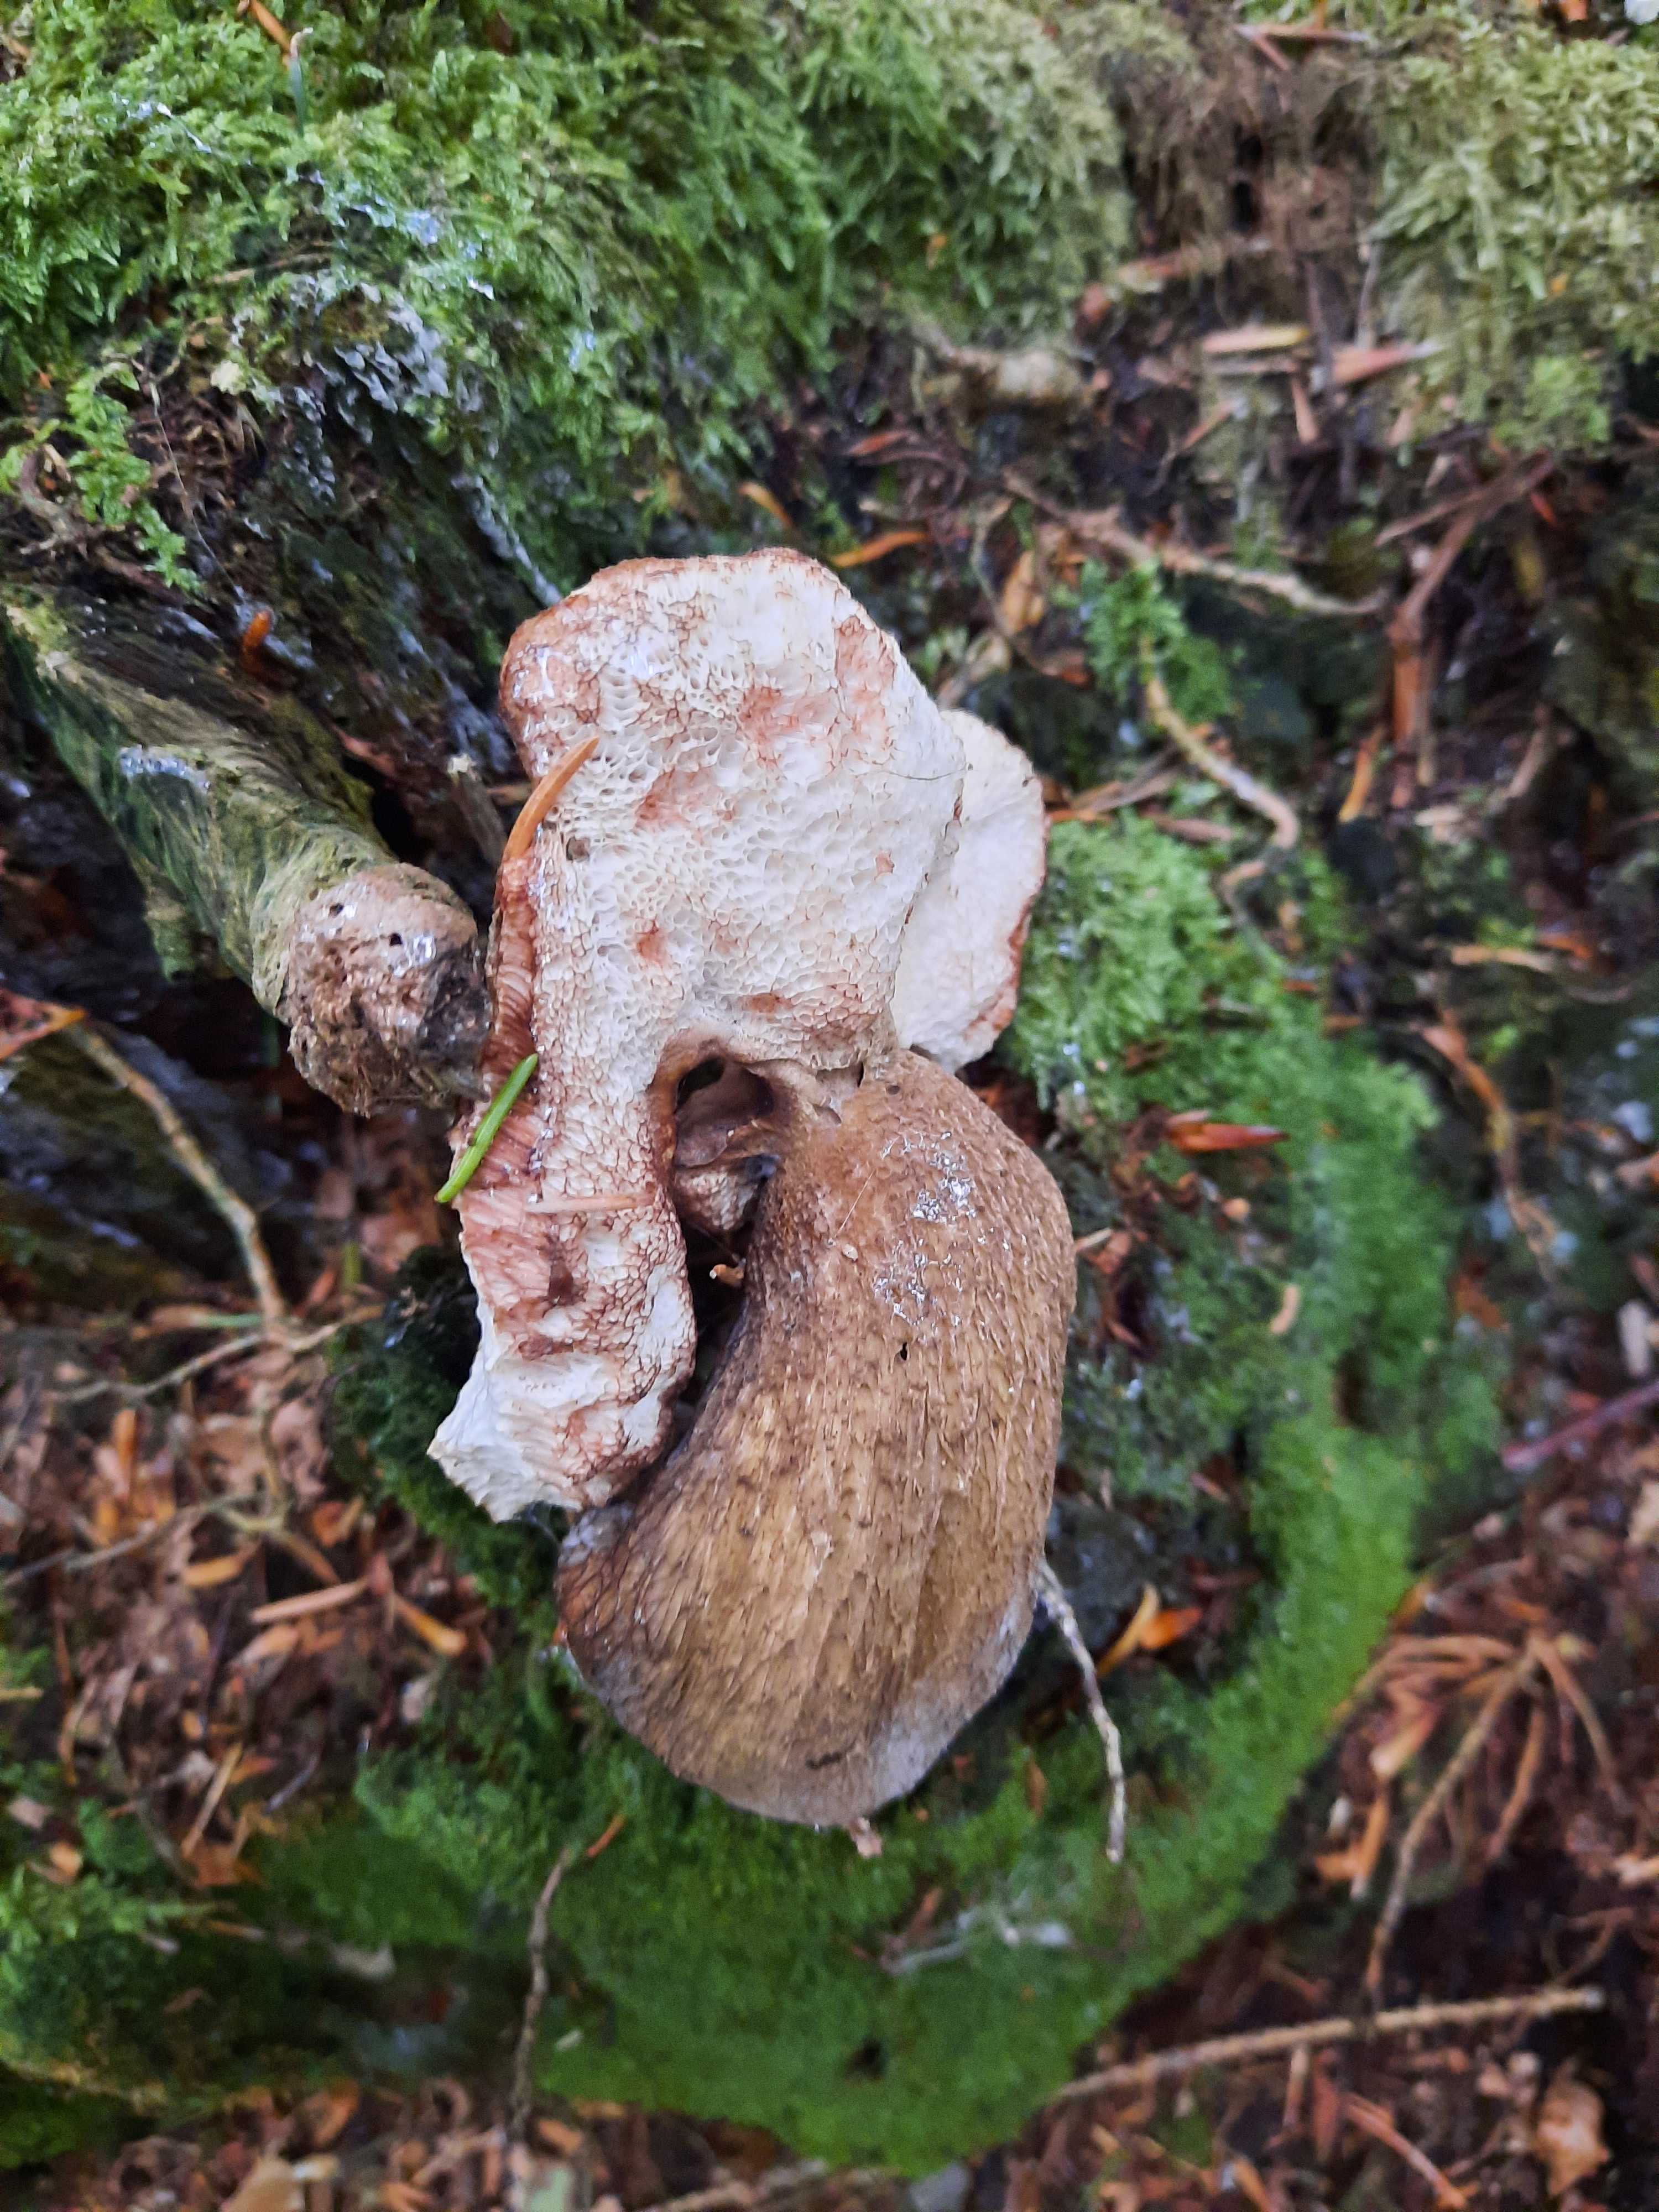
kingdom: Fungi
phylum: Basidiomycota
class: Agaricomycetes
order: Boletales
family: Boletaceae
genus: Tylopilus
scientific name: Tylopilus felleus
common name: galderørhat
